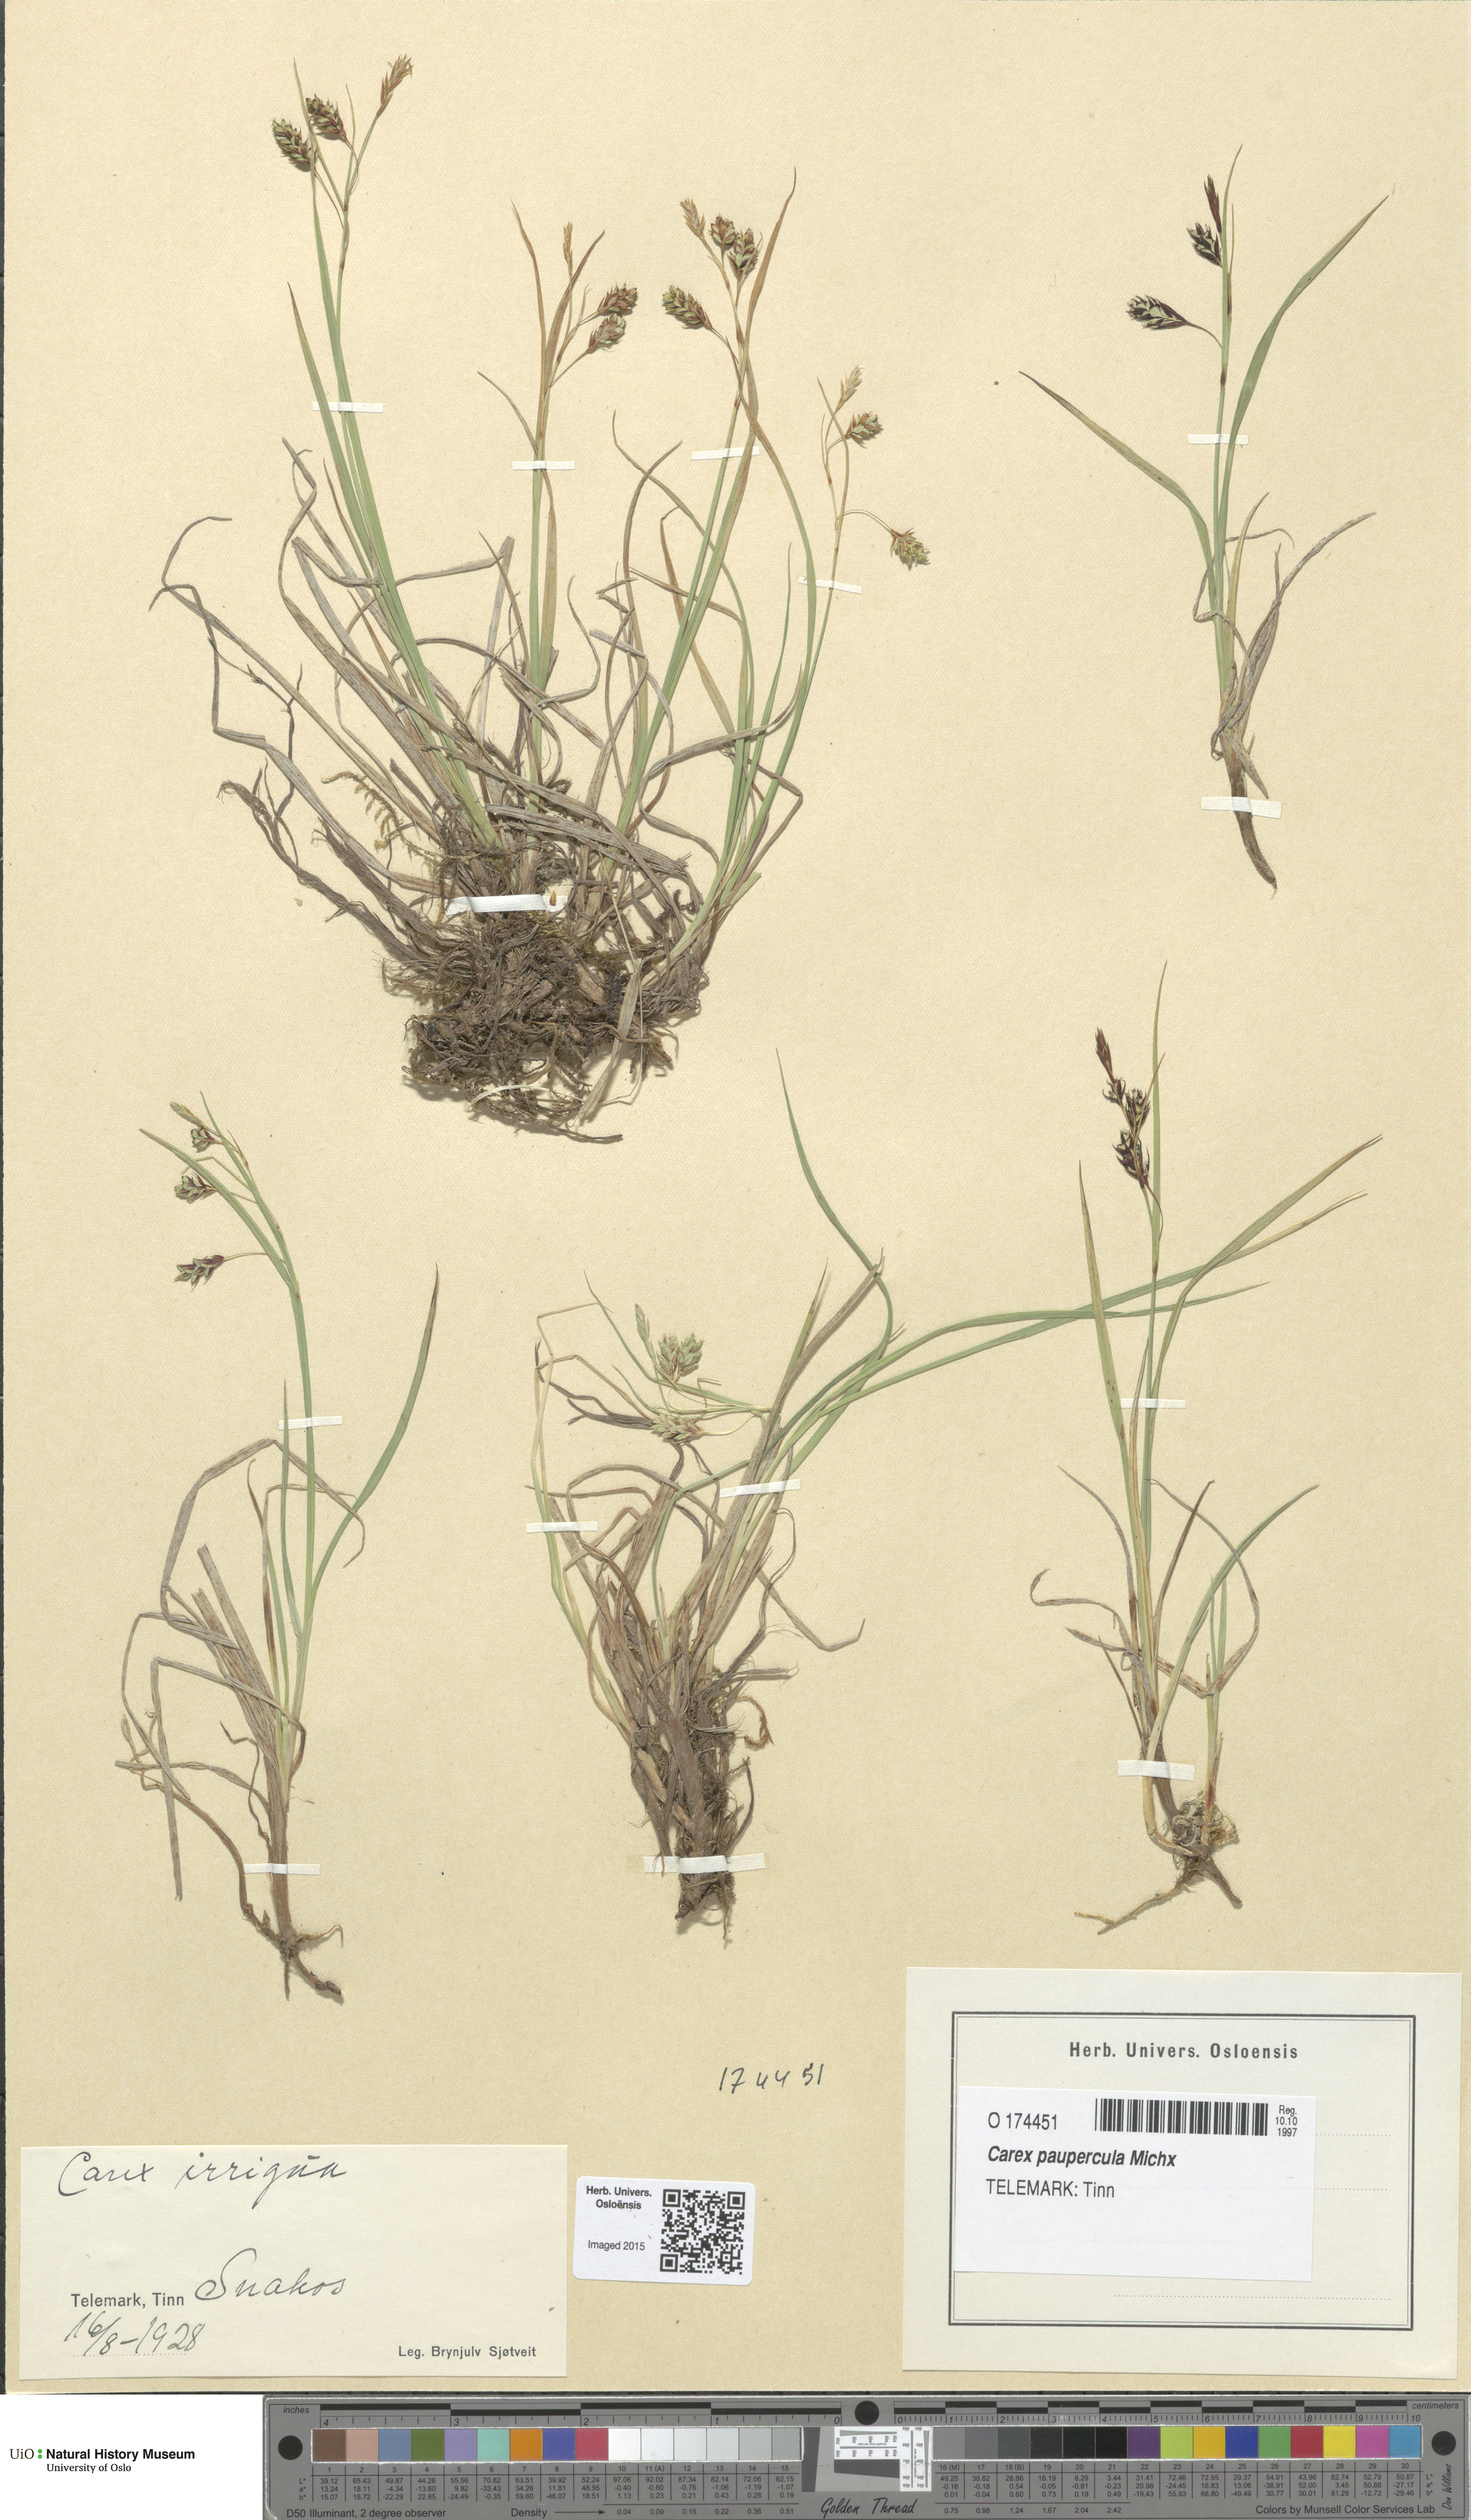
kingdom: Plantae
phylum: Tracheophyta
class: Liliopsida
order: Poales
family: Cyperaceae
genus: Carex
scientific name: Carex magellanica
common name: Bog sedge
